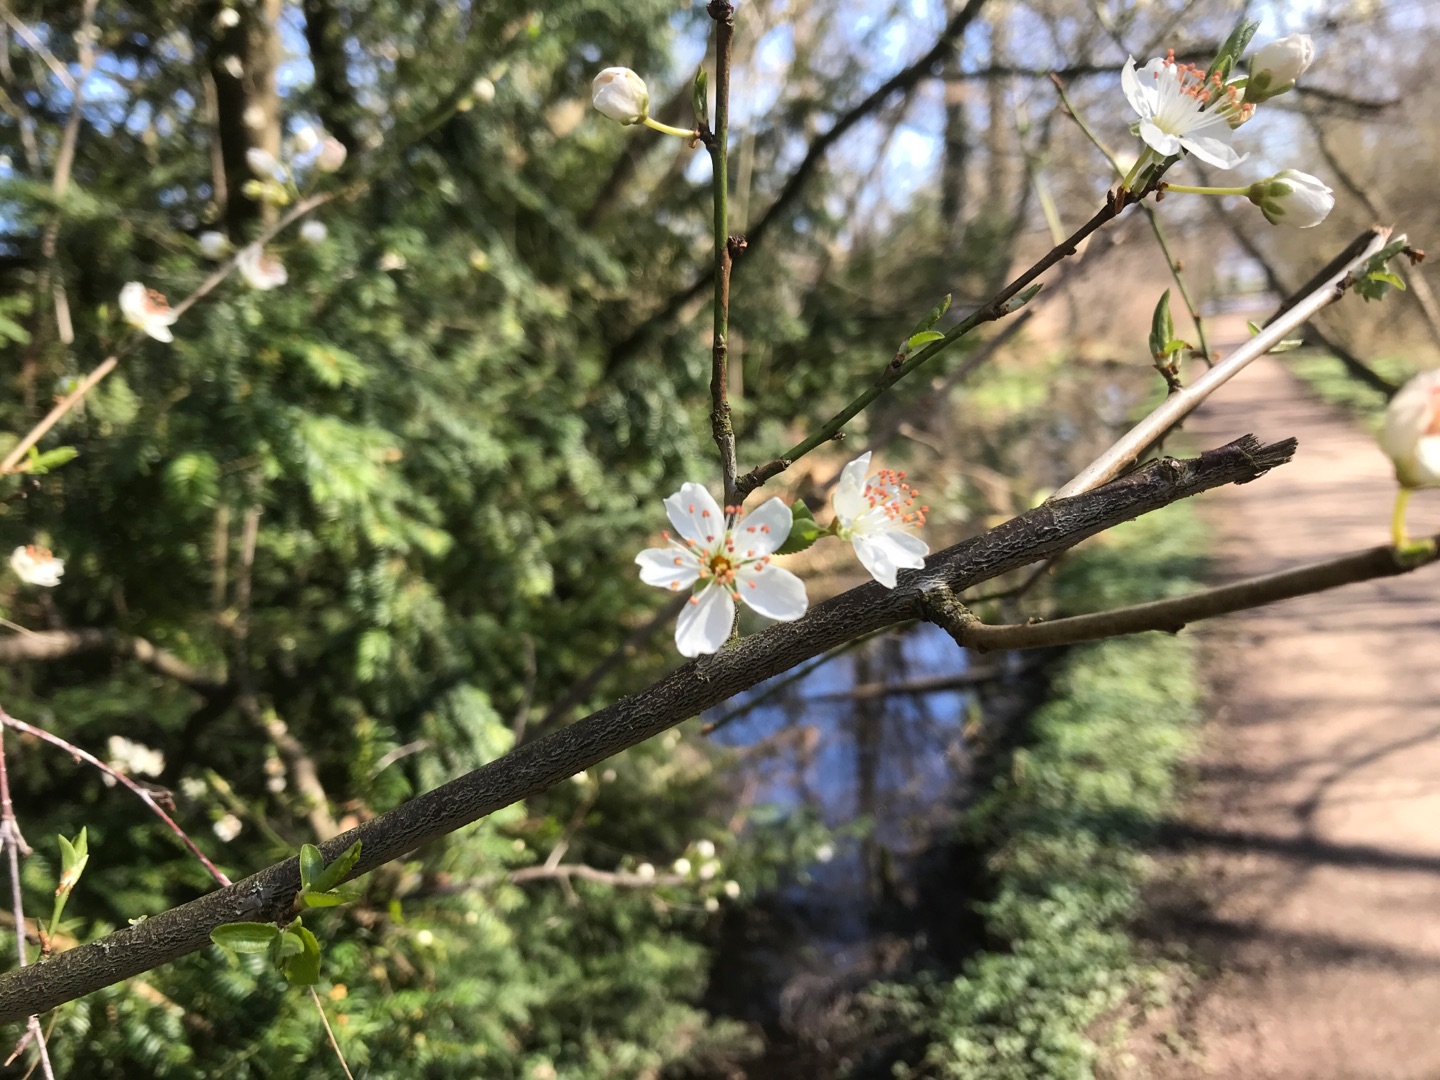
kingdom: Plantae
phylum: Tracheophyta
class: Magnoliopsida
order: Rosales
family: Rosaceae
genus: Prunus
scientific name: Prunus cerasifera
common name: Mirabel
